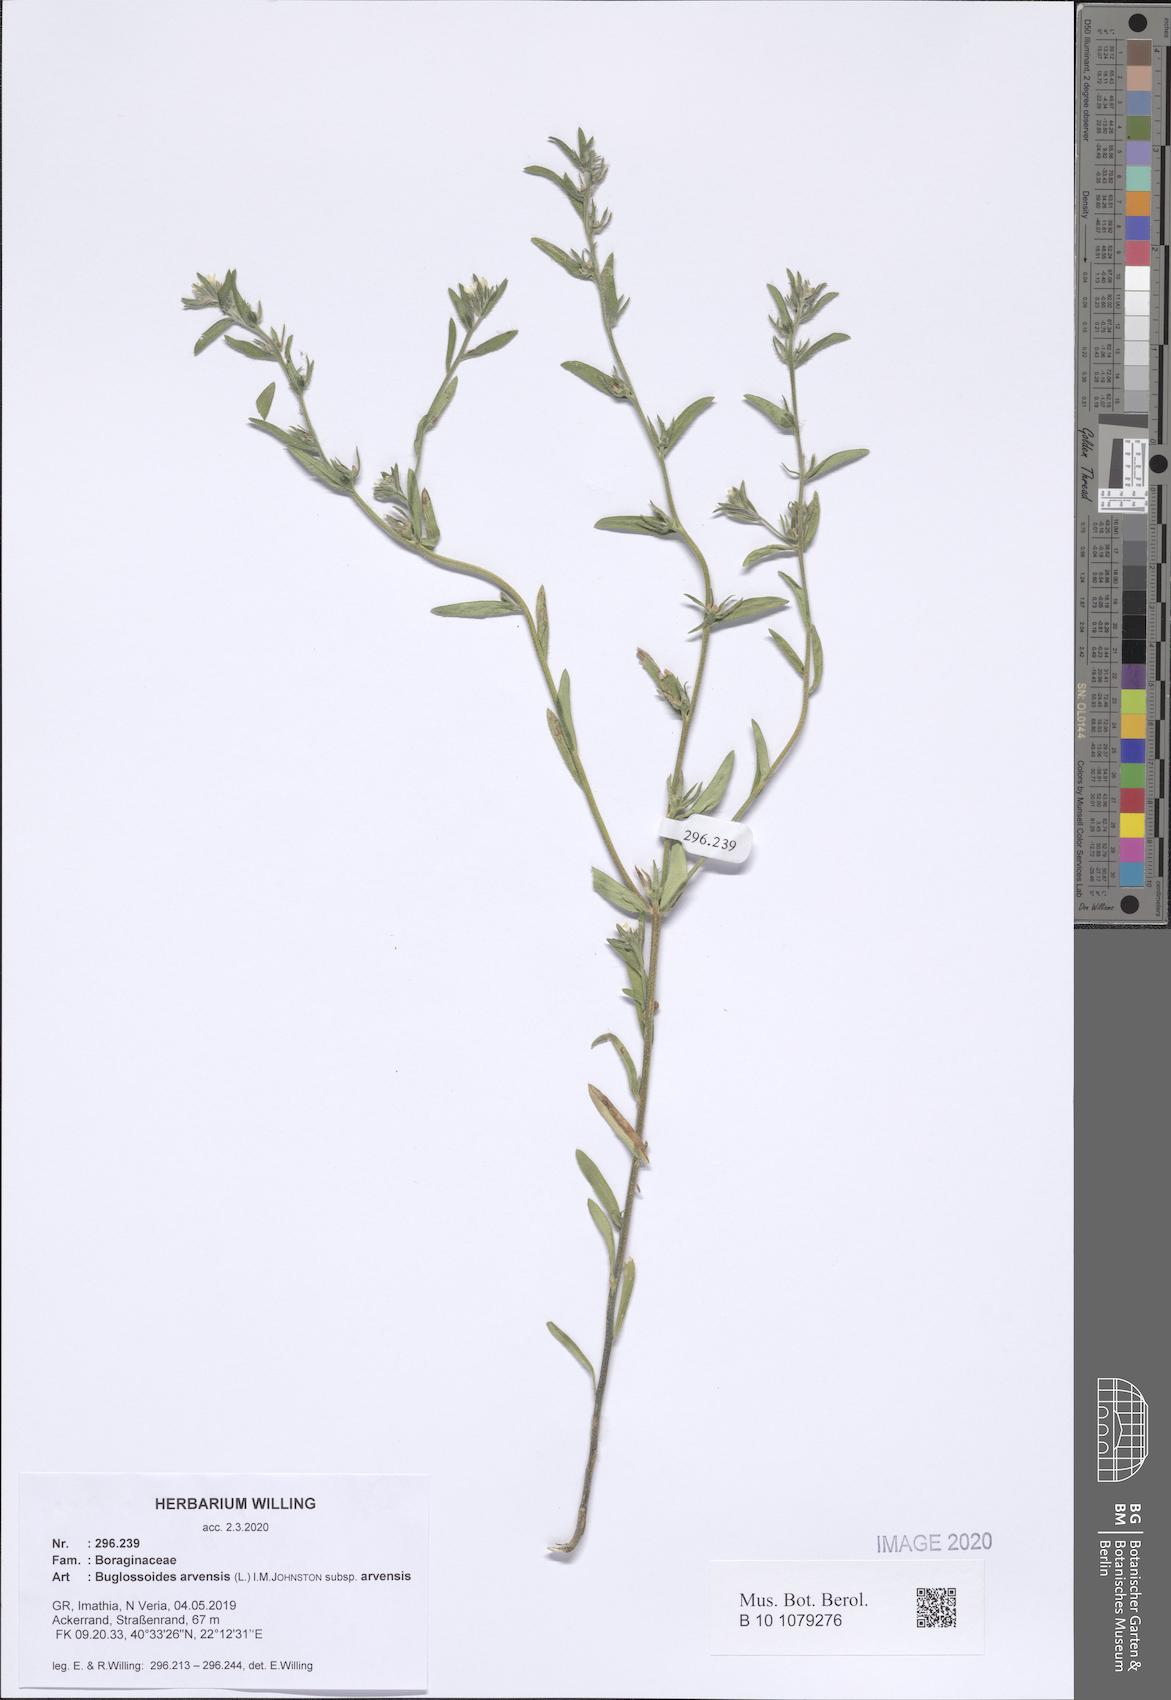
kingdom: Plantae
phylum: Tracheophyta
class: Magnoliopsida
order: Boraginales
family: Boraginaceae
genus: Buglossoides
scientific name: Buglossoides arvensis
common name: Corn gromwell
